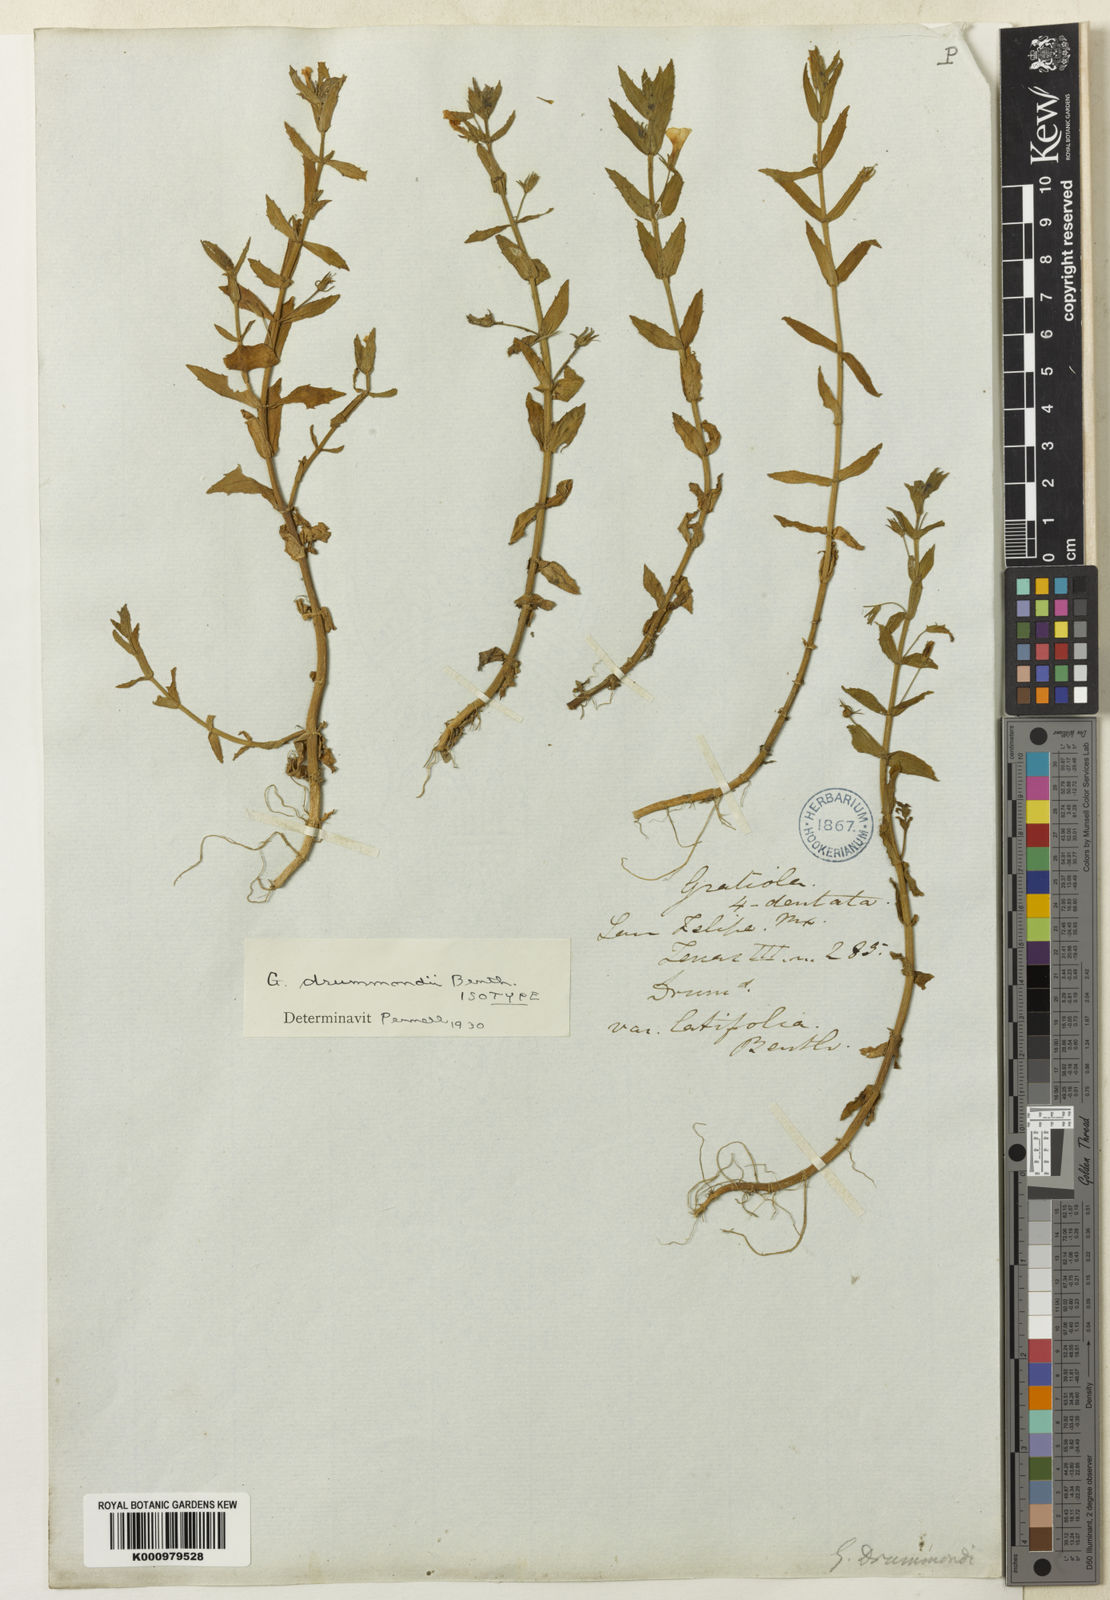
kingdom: Plantae
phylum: Tracheophyta
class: Magnoliopsida
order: Lamiales
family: Plantaginaceae
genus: Gratiola
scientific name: Gratiola ramosa
